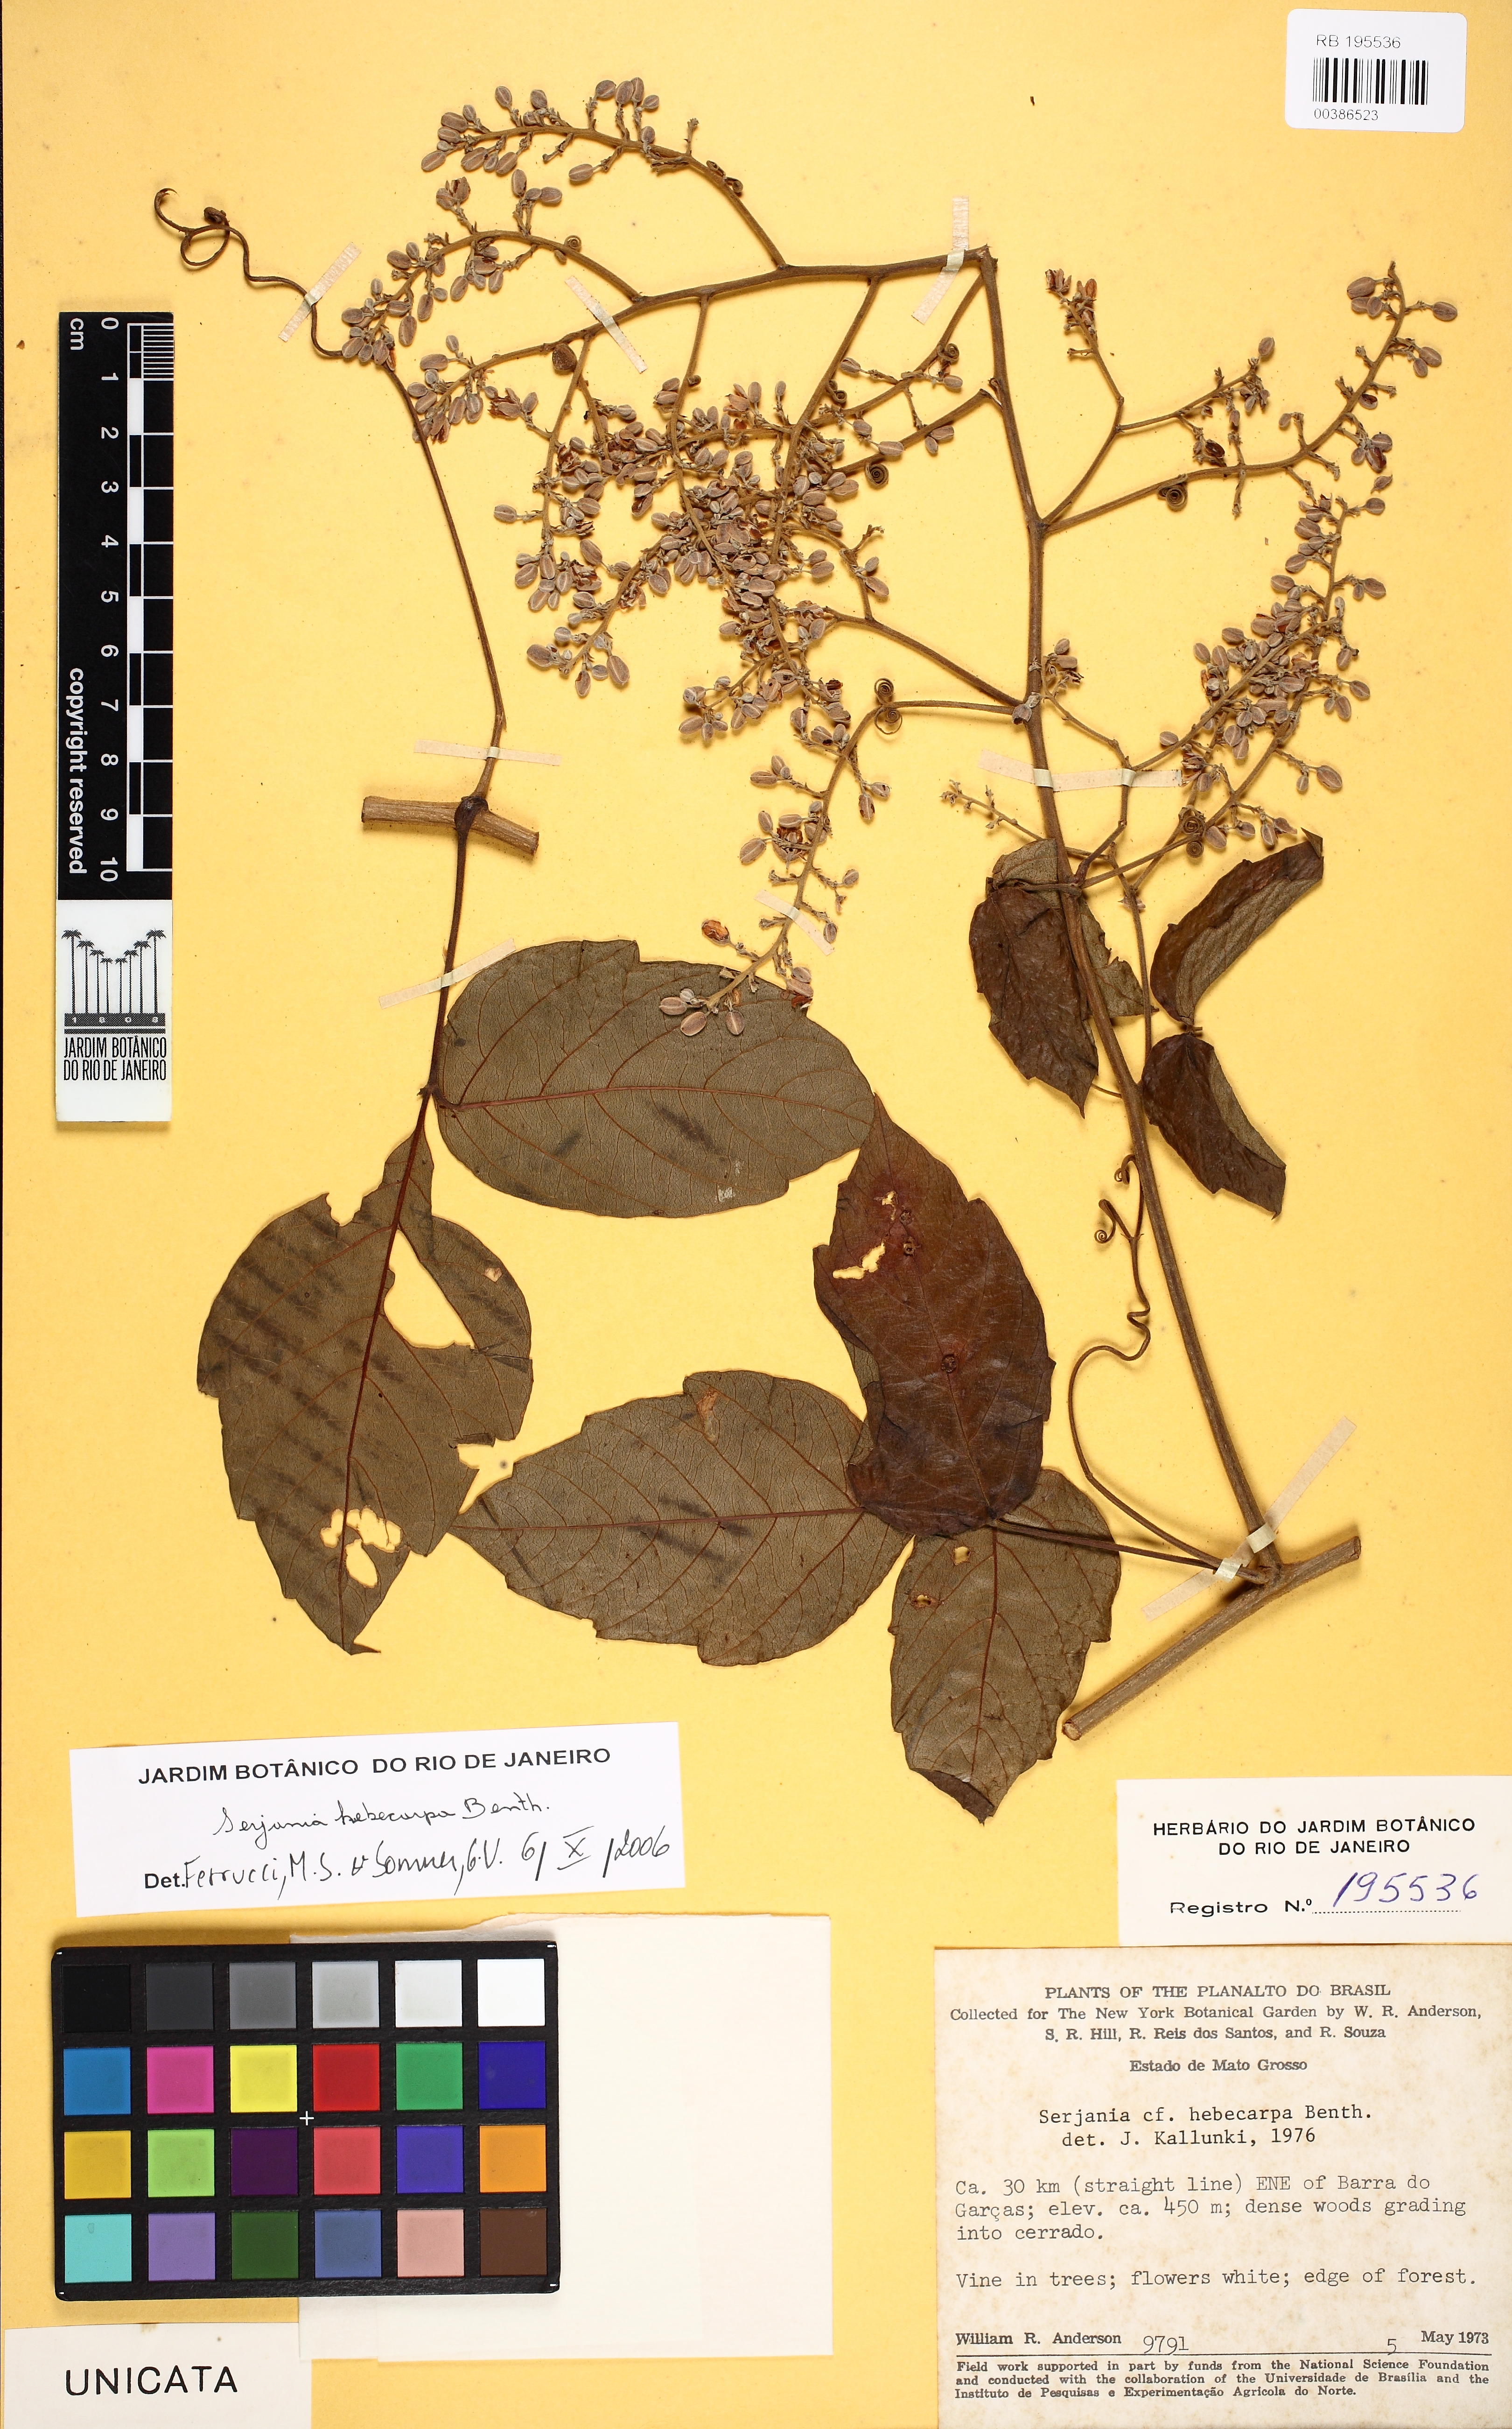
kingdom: Plantae
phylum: Tracheophyta
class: Magnoliopsida
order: Sapindales
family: Sapindaceae
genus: Serjania
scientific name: Serjania hebecarpa
